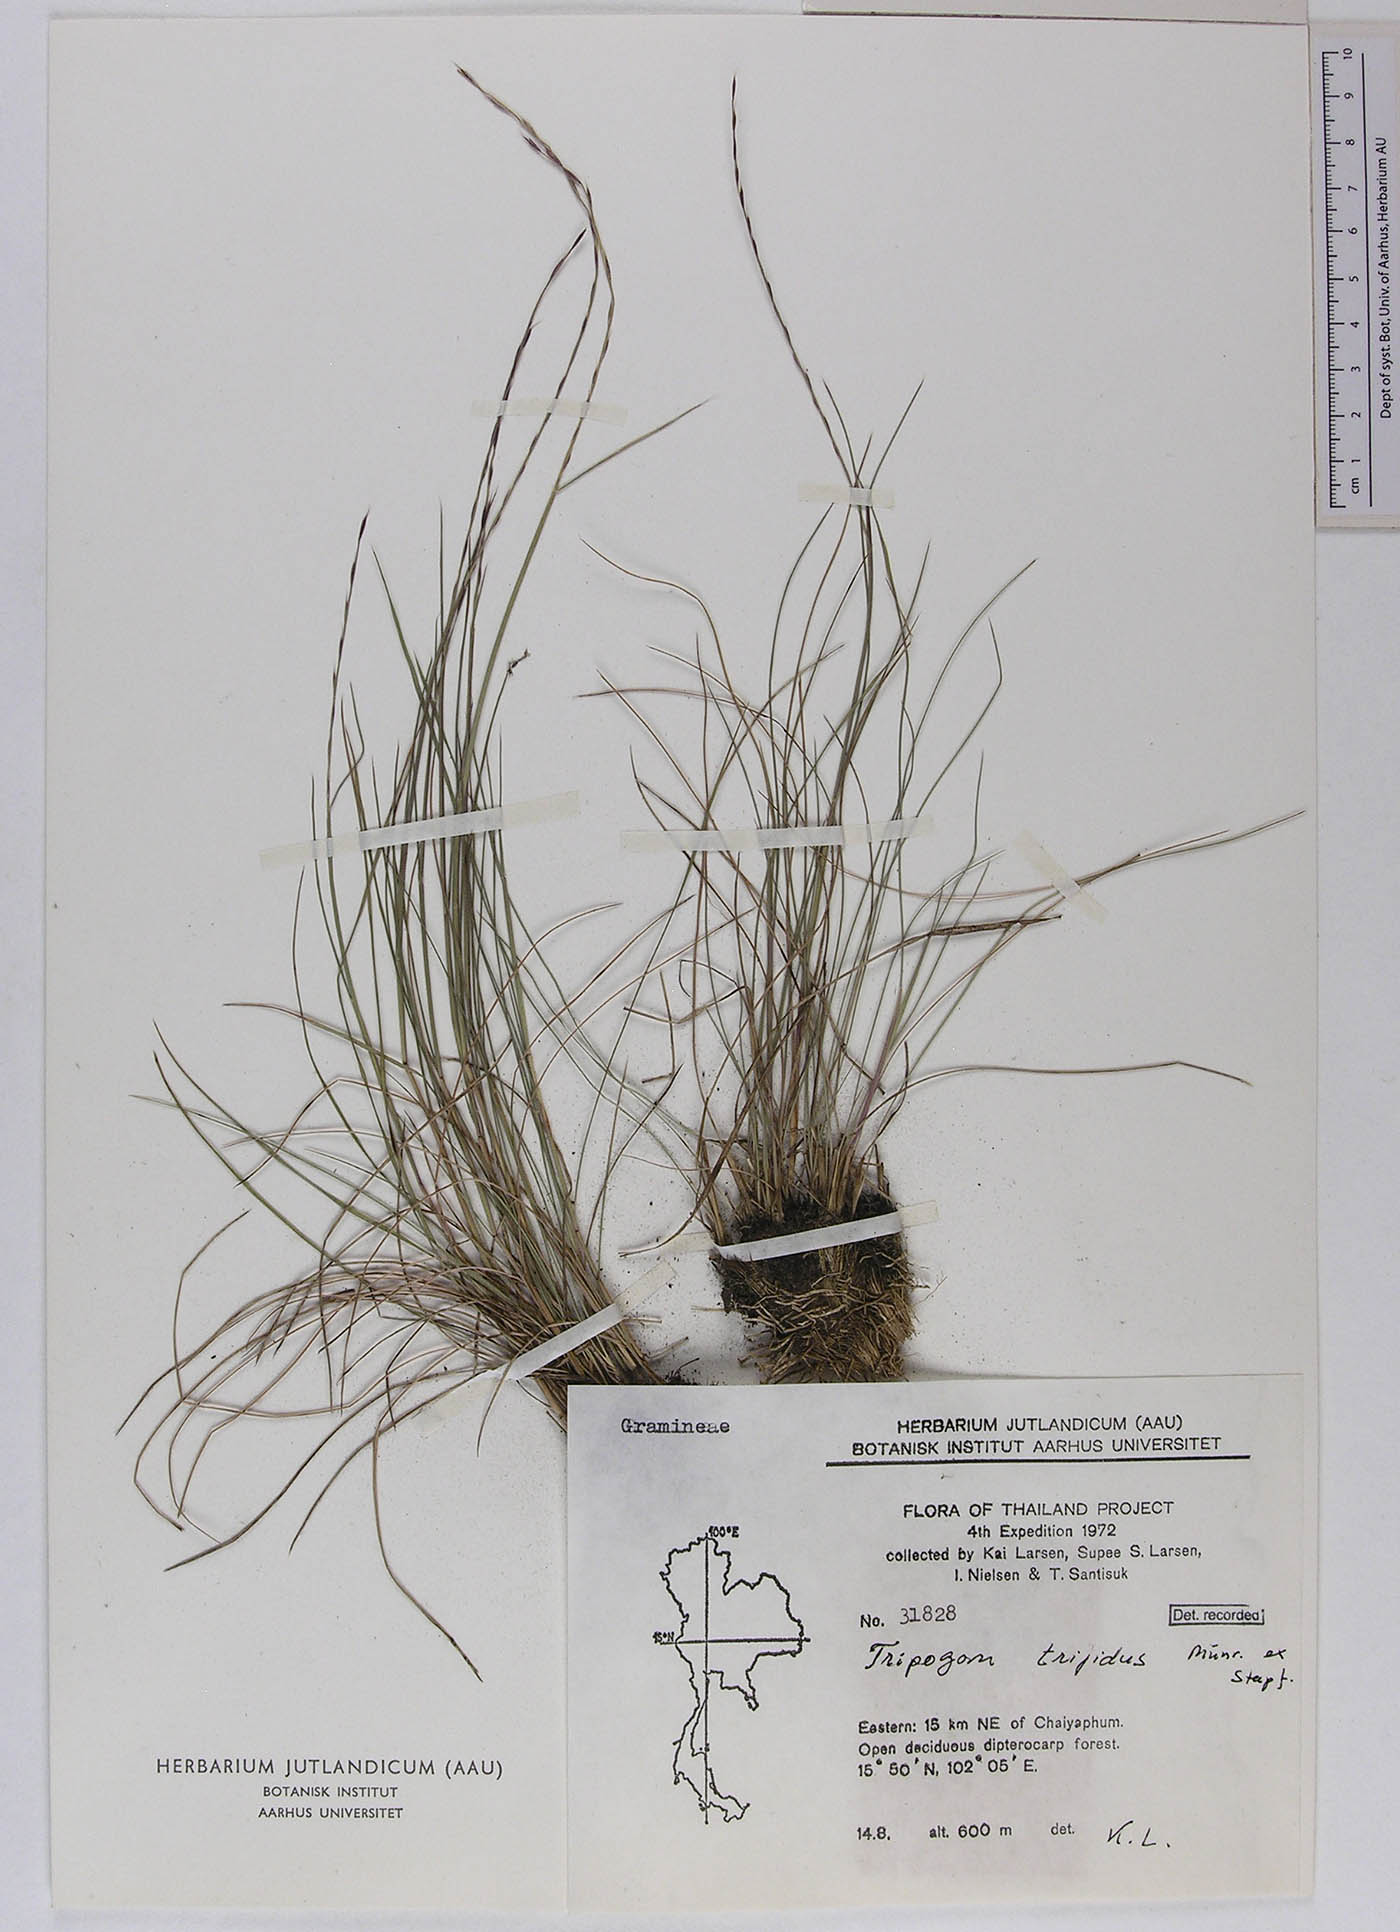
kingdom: Plantae
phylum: Tracheophyta
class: Liliopsida
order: Poales
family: Poaceae
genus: Tripogon
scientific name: Tripogon trifidus
